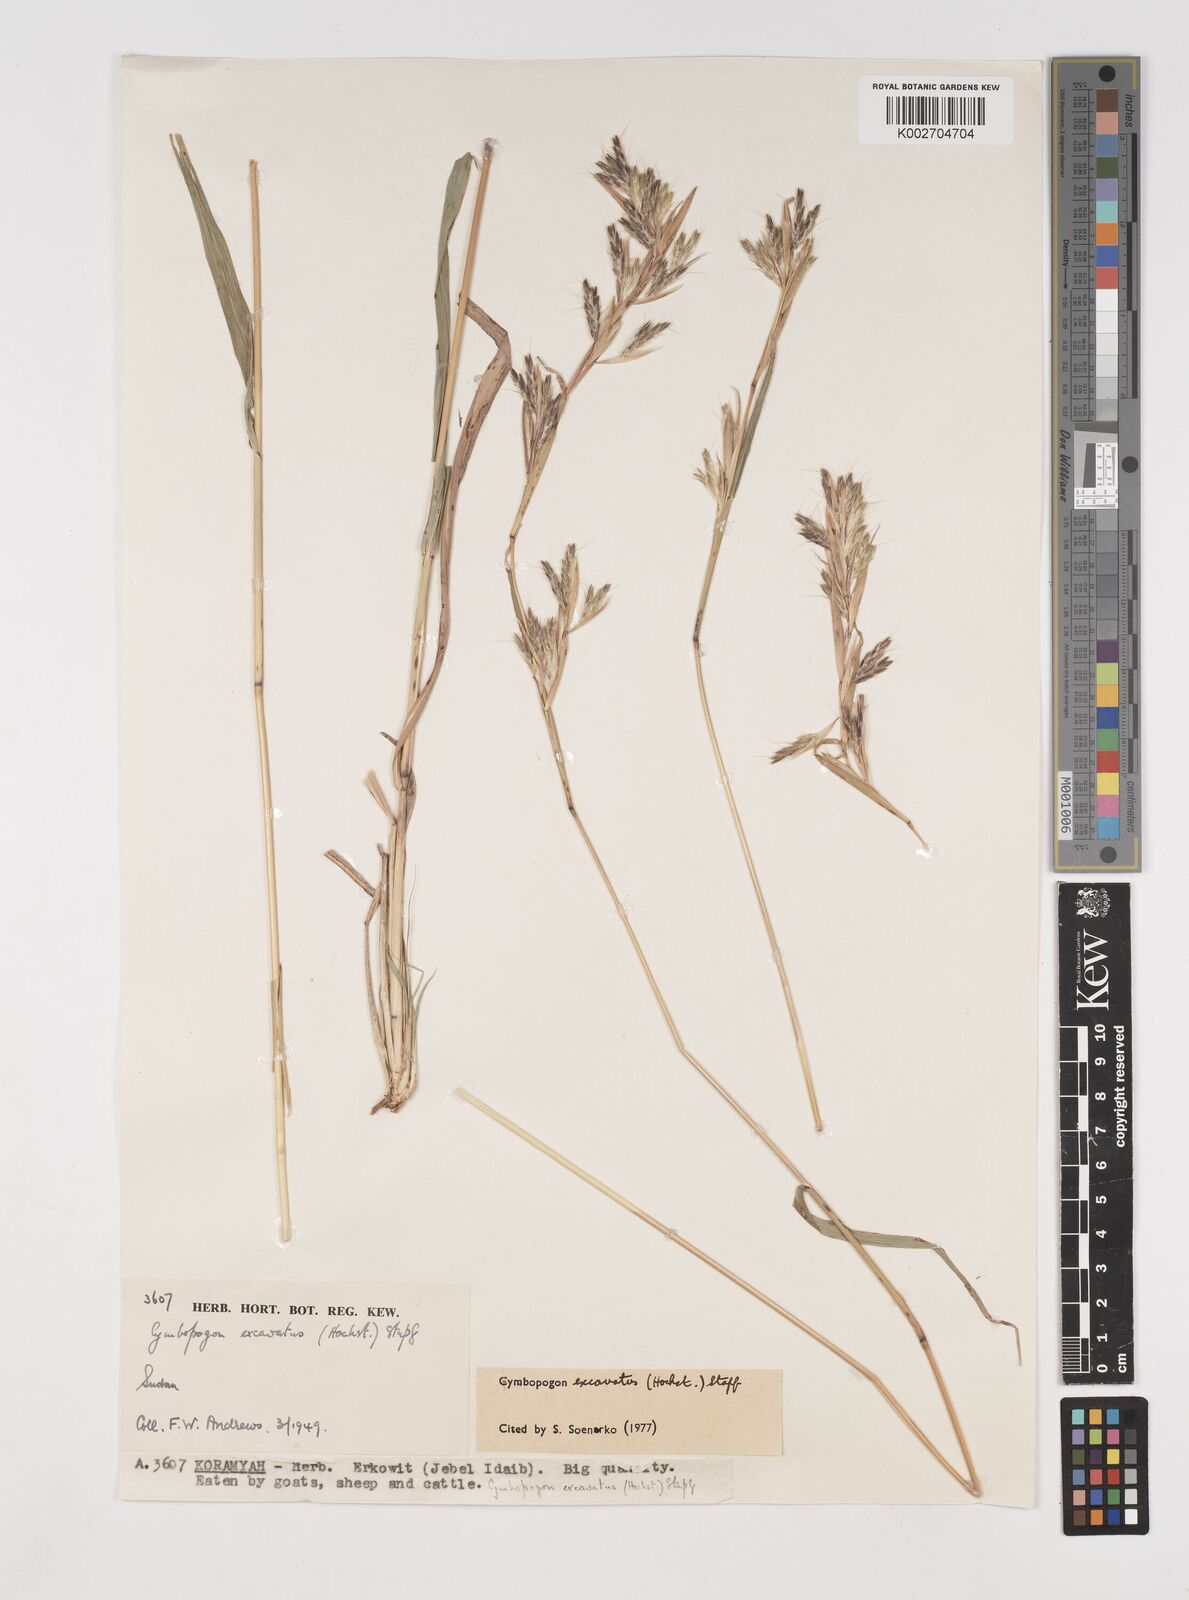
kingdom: Plantae
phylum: Tracheophyta
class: Liliopsida
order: Poales
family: Poaceae
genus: Cymbopogon
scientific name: Cymbopogon
